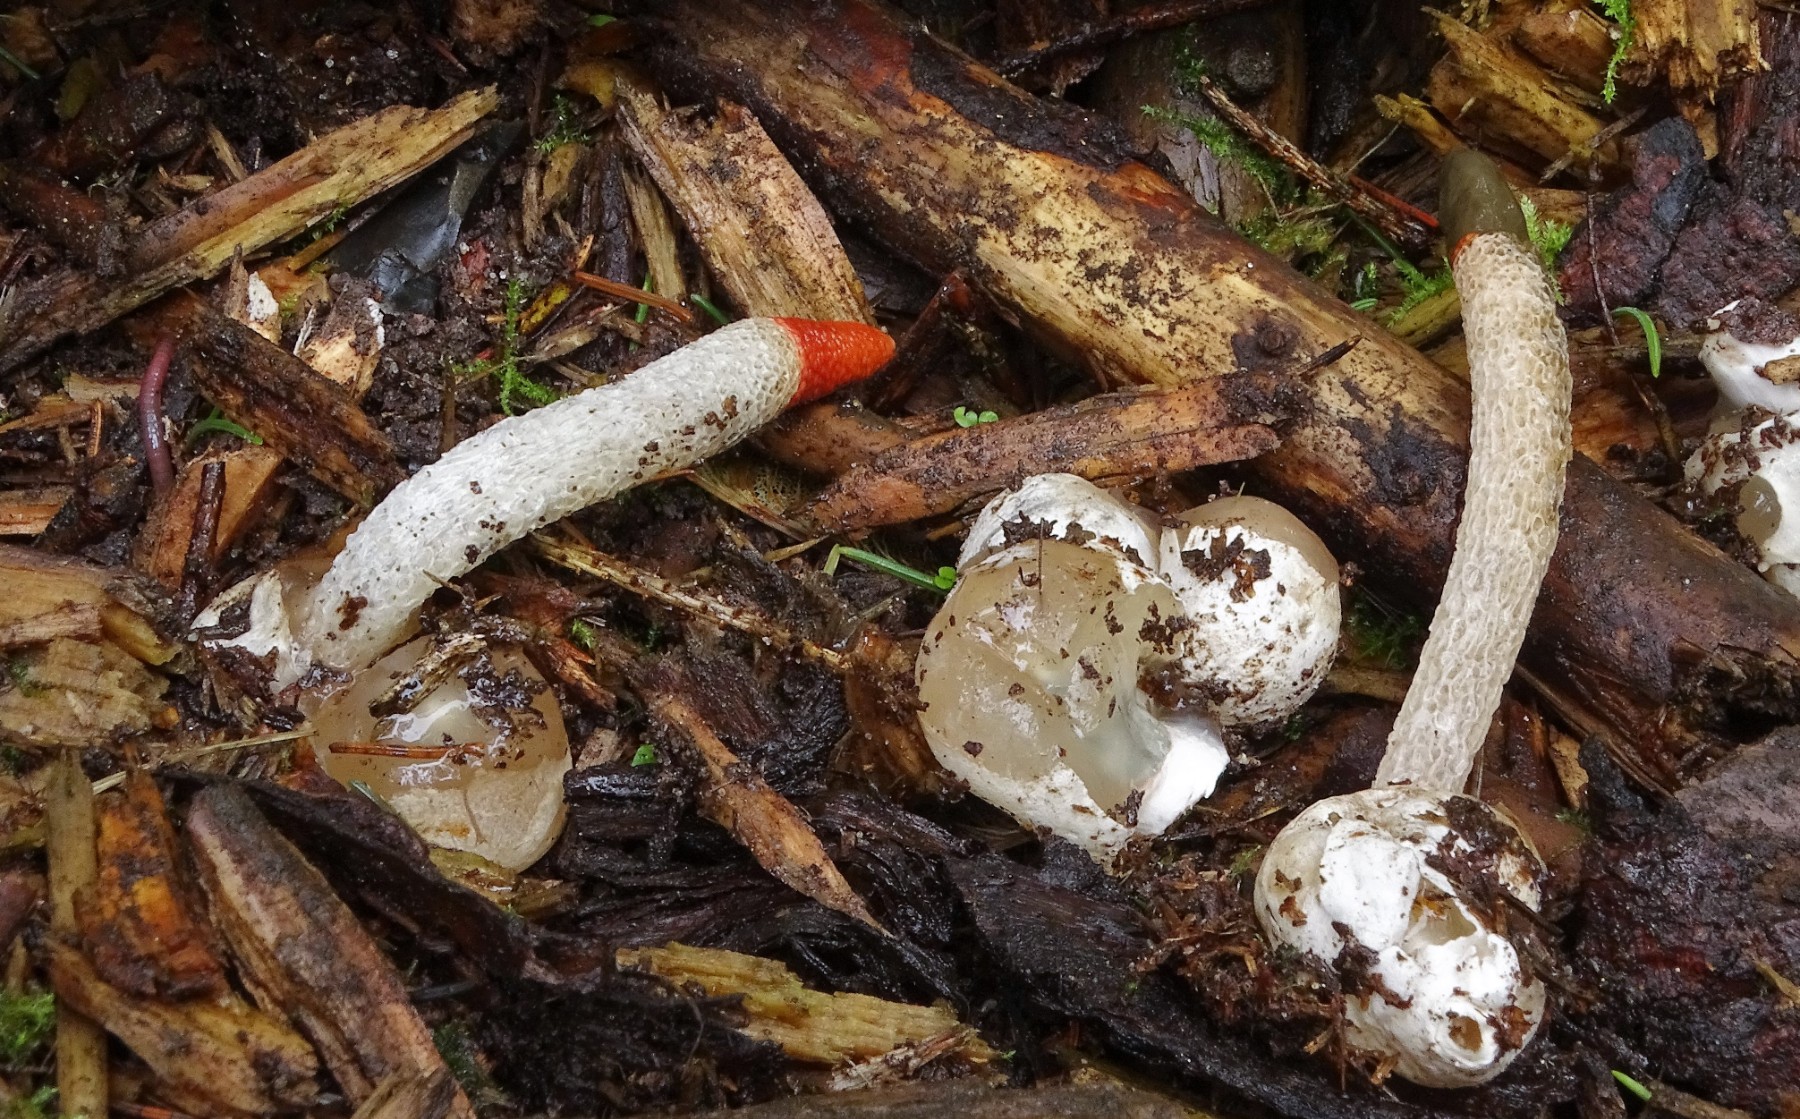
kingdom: Fungi
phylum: Basidiomycota
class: Agaricomycetes
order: Phallales
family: Phallaceae
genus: Mutinus
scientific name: Mutinus caninus
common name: hunde-stinksvamp
